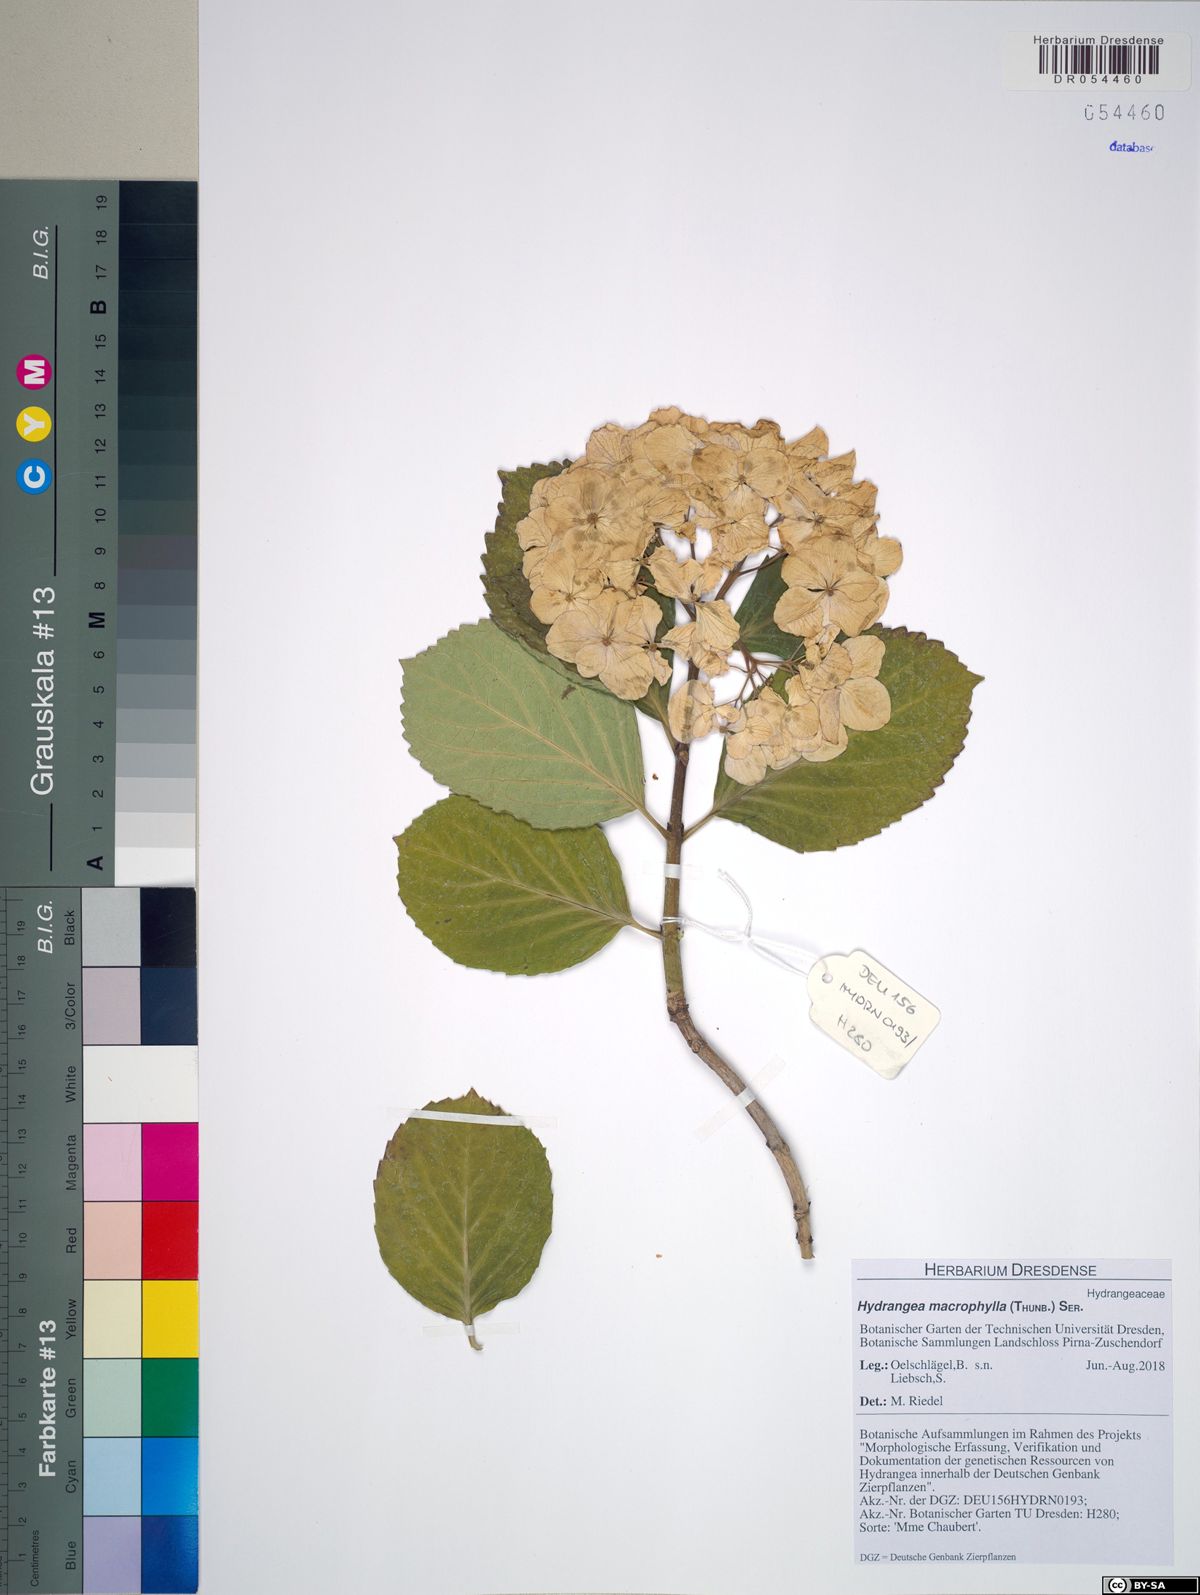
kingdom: Plantae
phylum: Tracheophyta
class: Magnoliopsida
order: Cornales
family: Hydrangeaceae
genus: Hydrangea
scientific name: Hydrangea macrophylla
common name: Hydrangea
